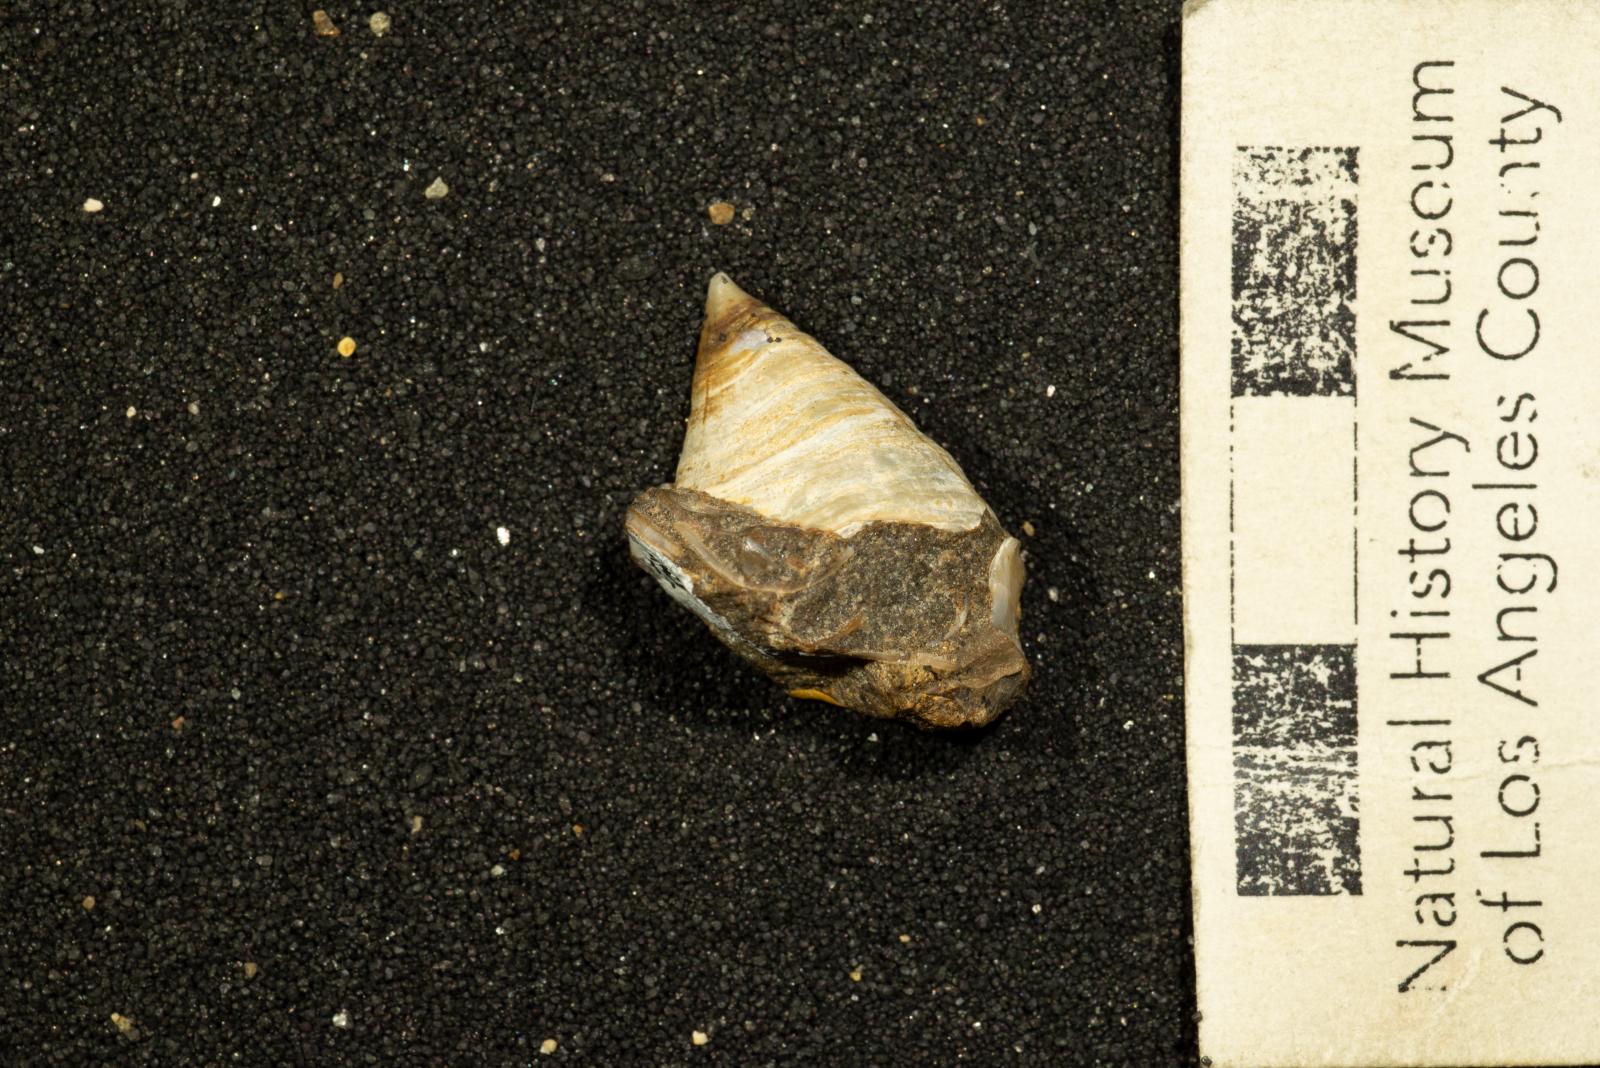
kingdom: Animalia
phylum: Mollusca
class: Gastropoda
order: Siphonariida
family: Siphonariidae
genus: Anisomyon
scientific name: Anisomyon
